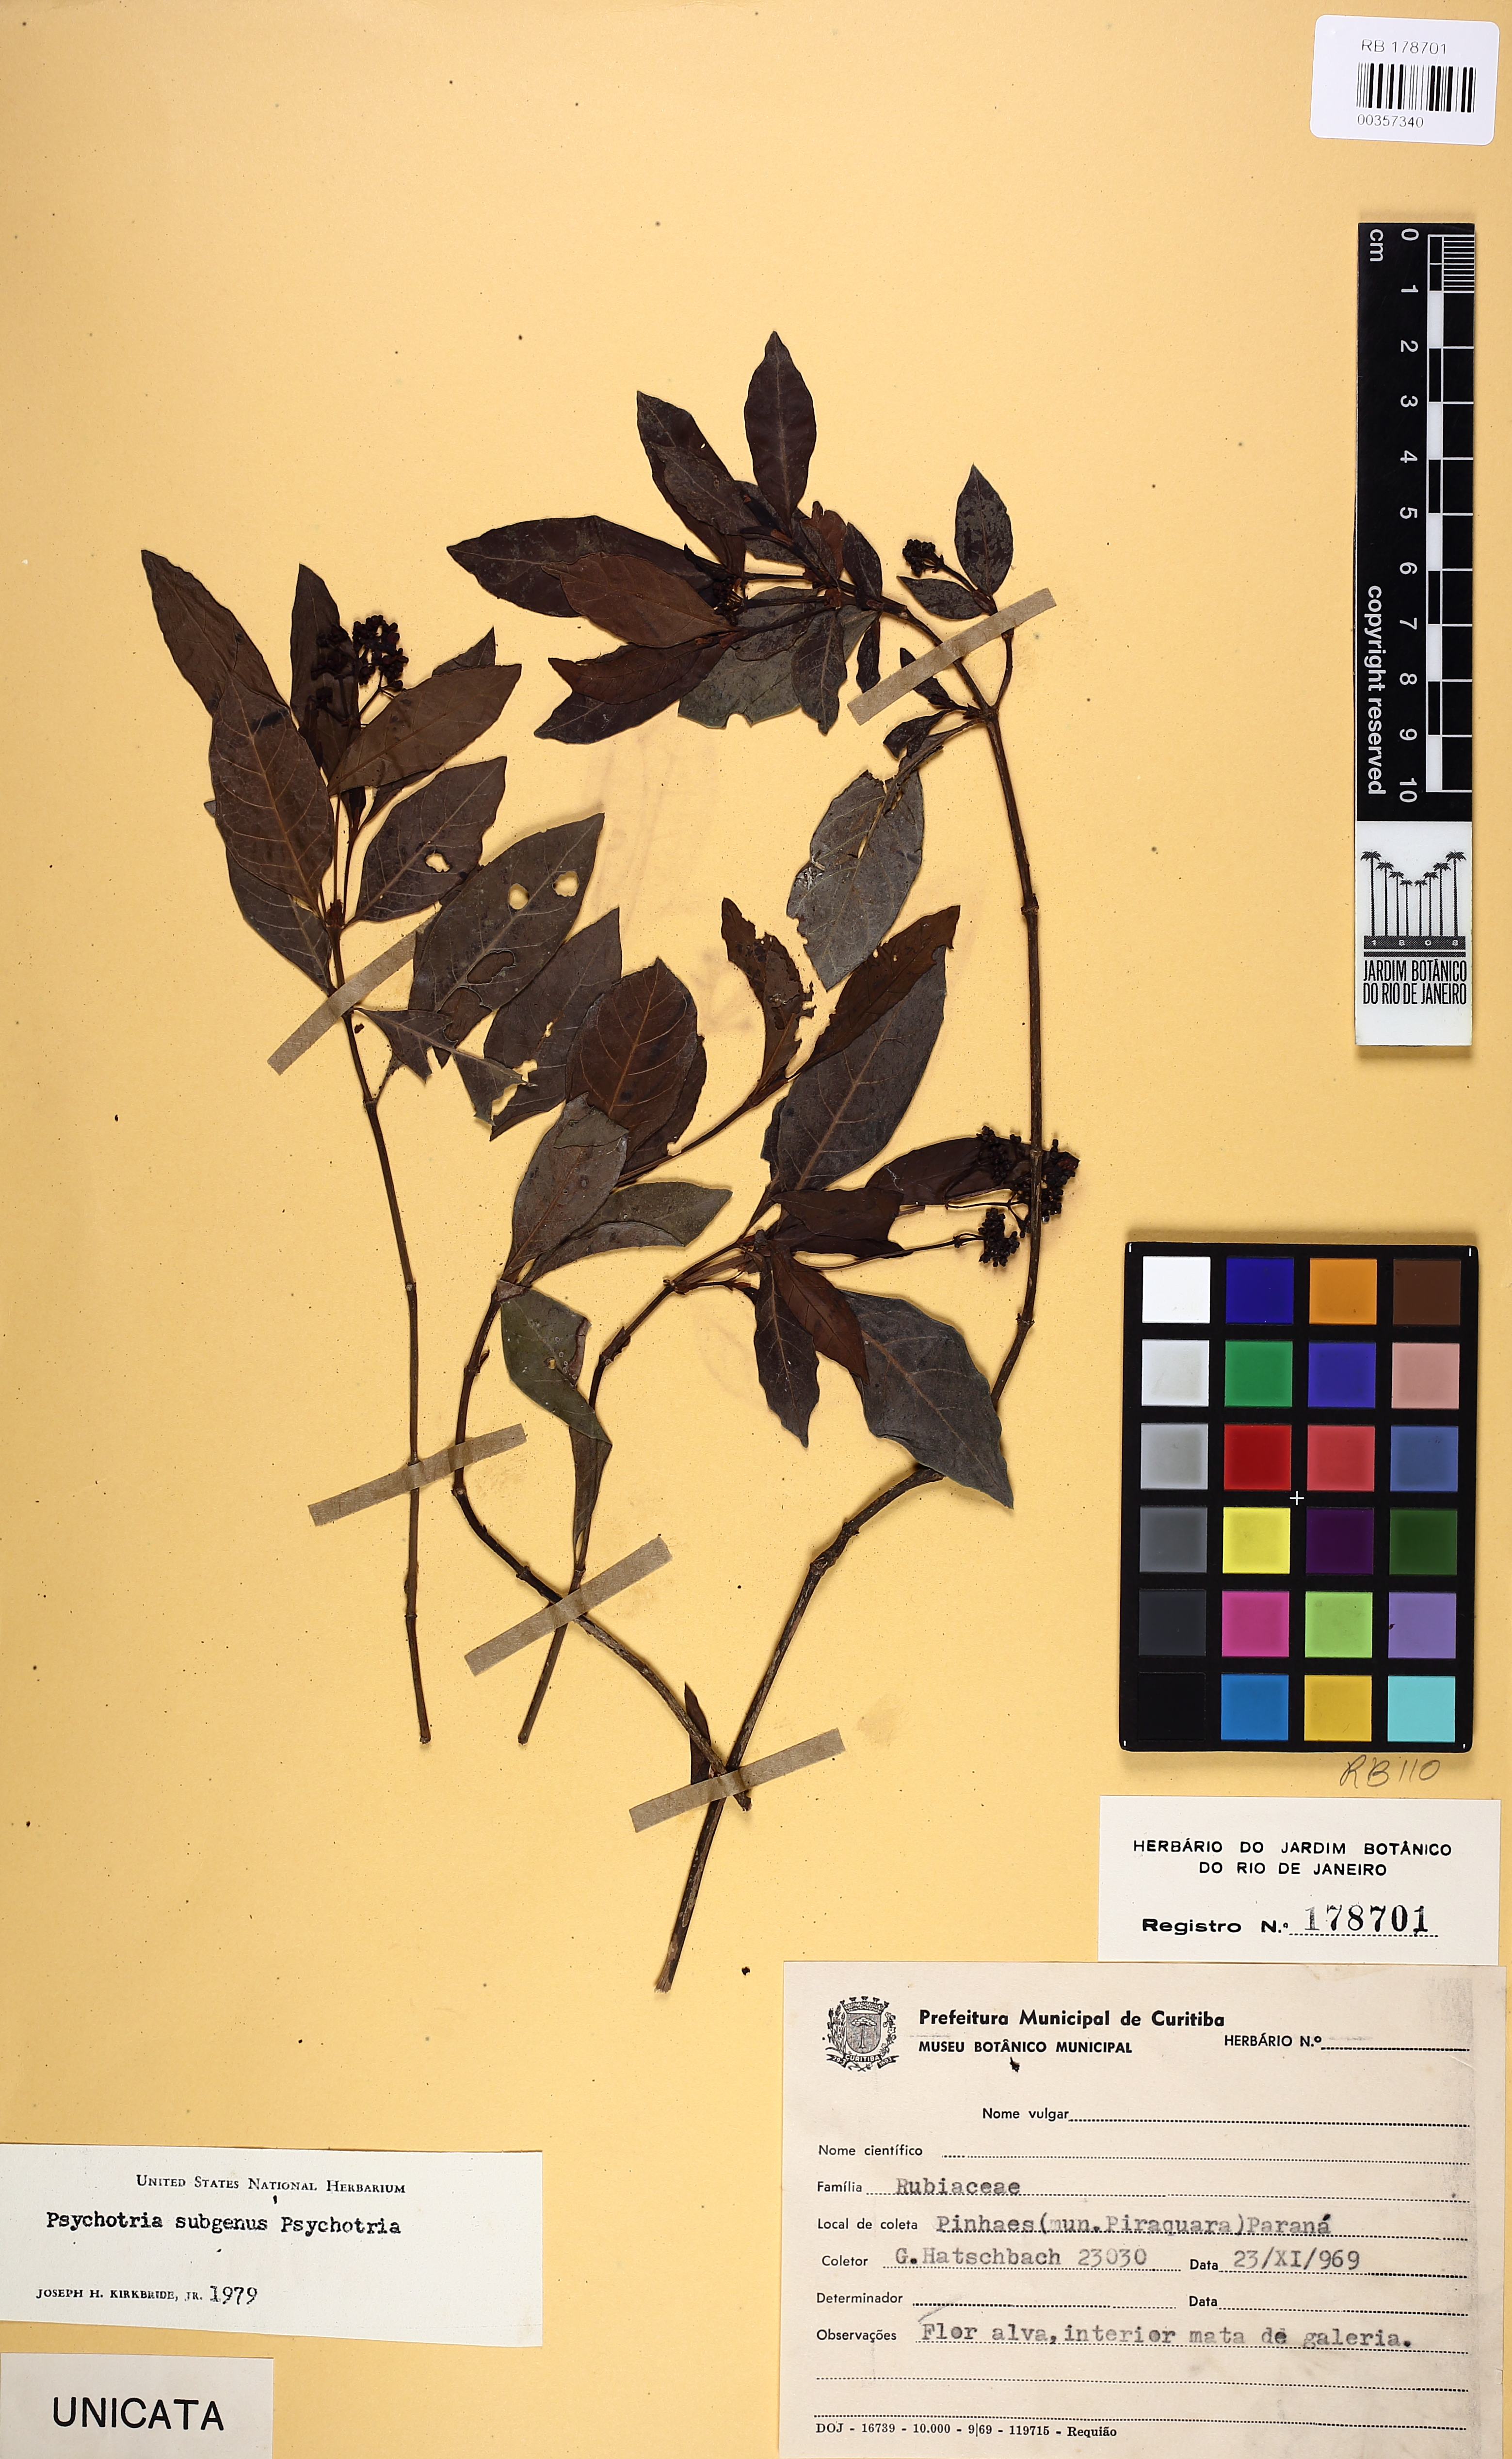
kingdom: Plantae
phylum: Tracheophyta
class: Magnoliopsida
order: Gentianales
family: Rubiaceae
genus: Psychotria
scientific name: Psychotria fractistipula
